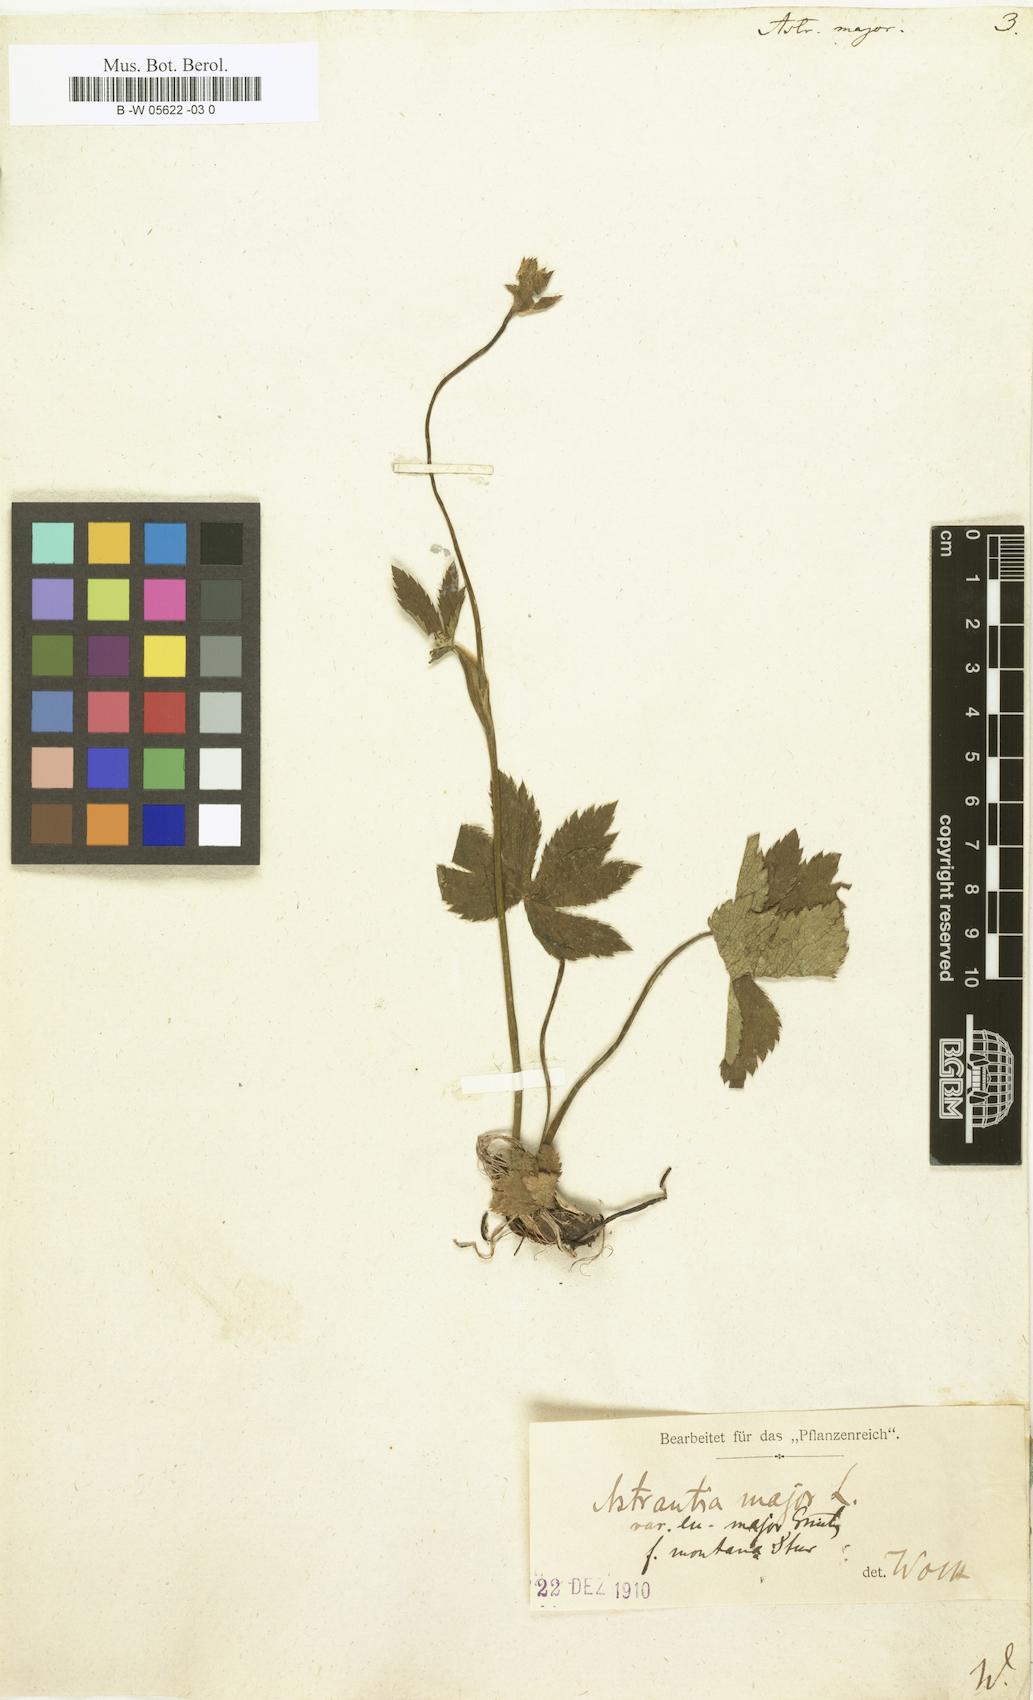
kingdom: Plantae
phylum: Tracheophyta
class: Magnoliopsida
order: Apiales
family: Apiaceae
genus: Astrantia
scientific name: Astrantia major
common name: Greater masterwort
